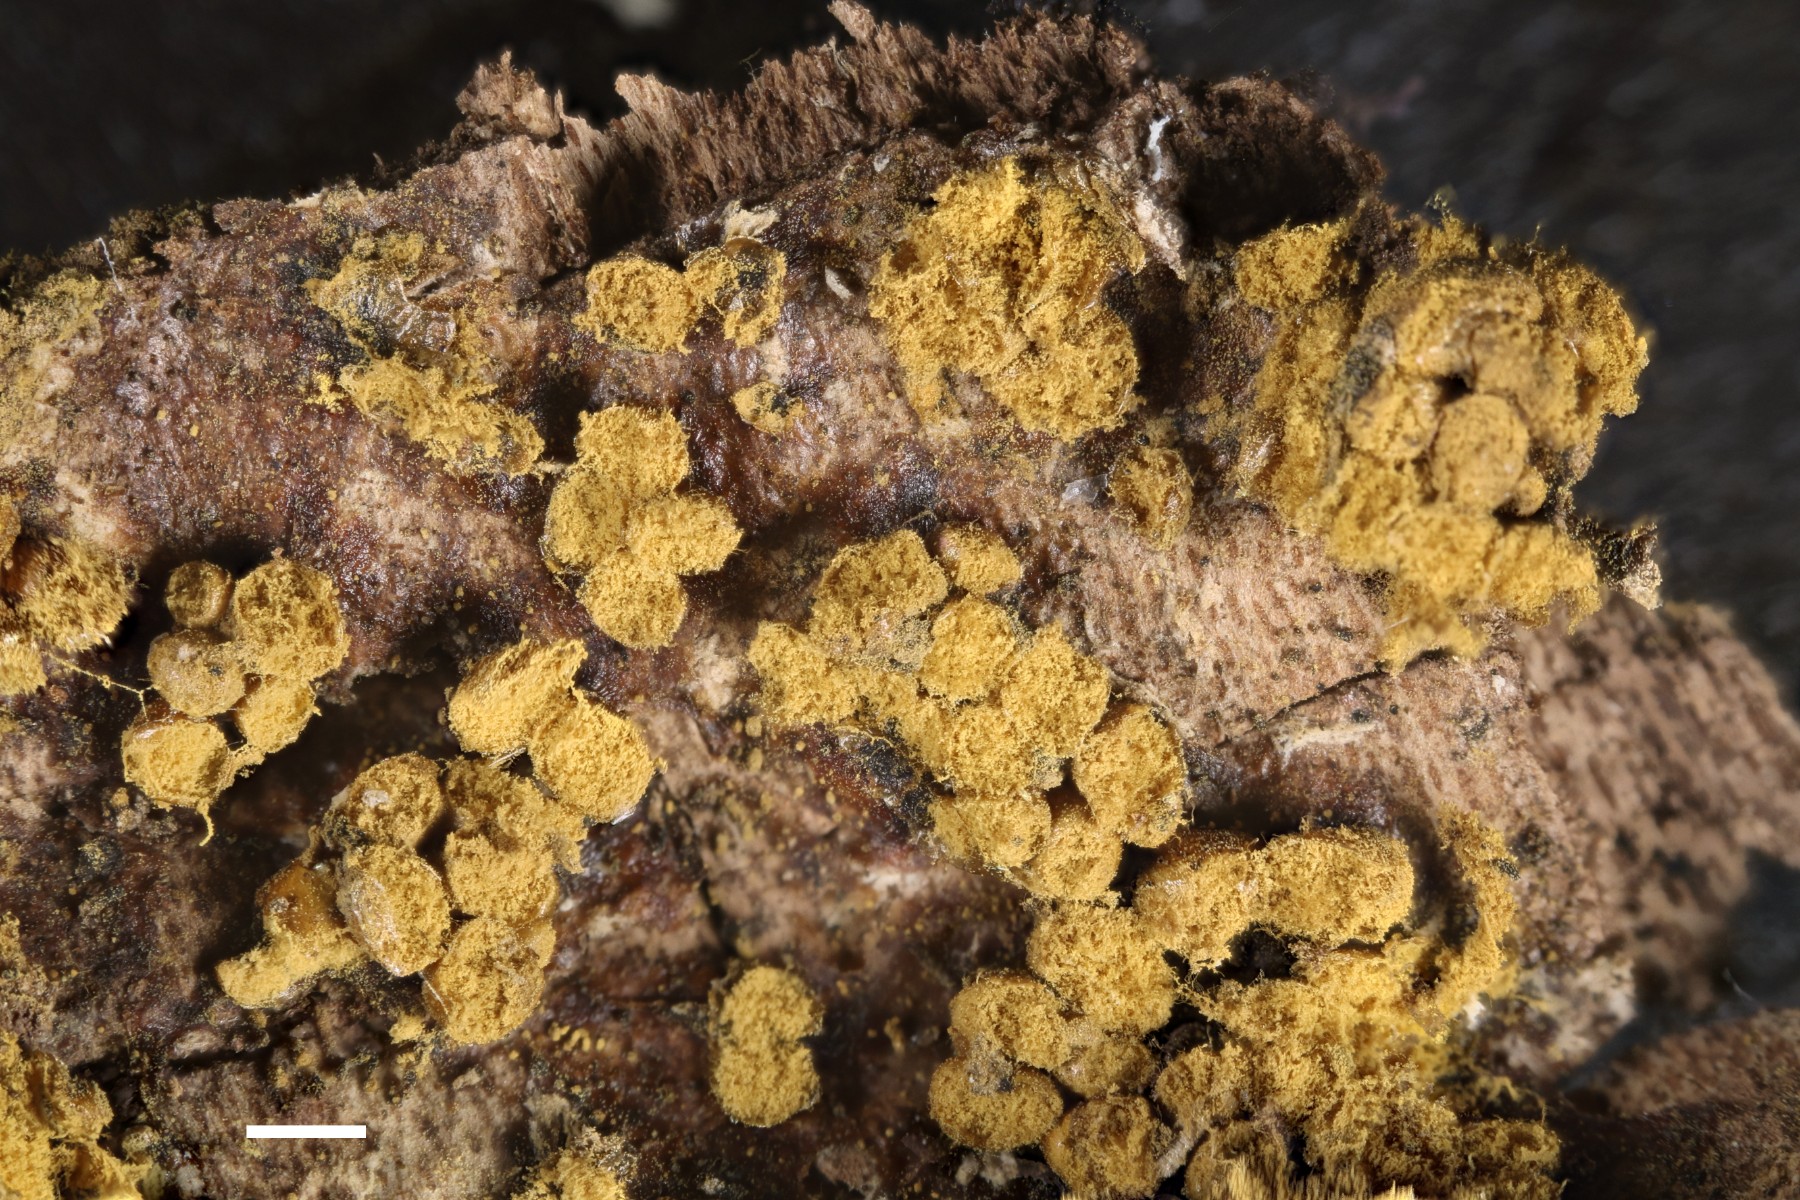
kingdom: Protozoa
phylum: Mycetozoa
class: Myxomycetes
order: Trichiales
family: Trichiaceae
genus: Trichia
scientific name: Trichia varia
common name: foranderlig hårbold
